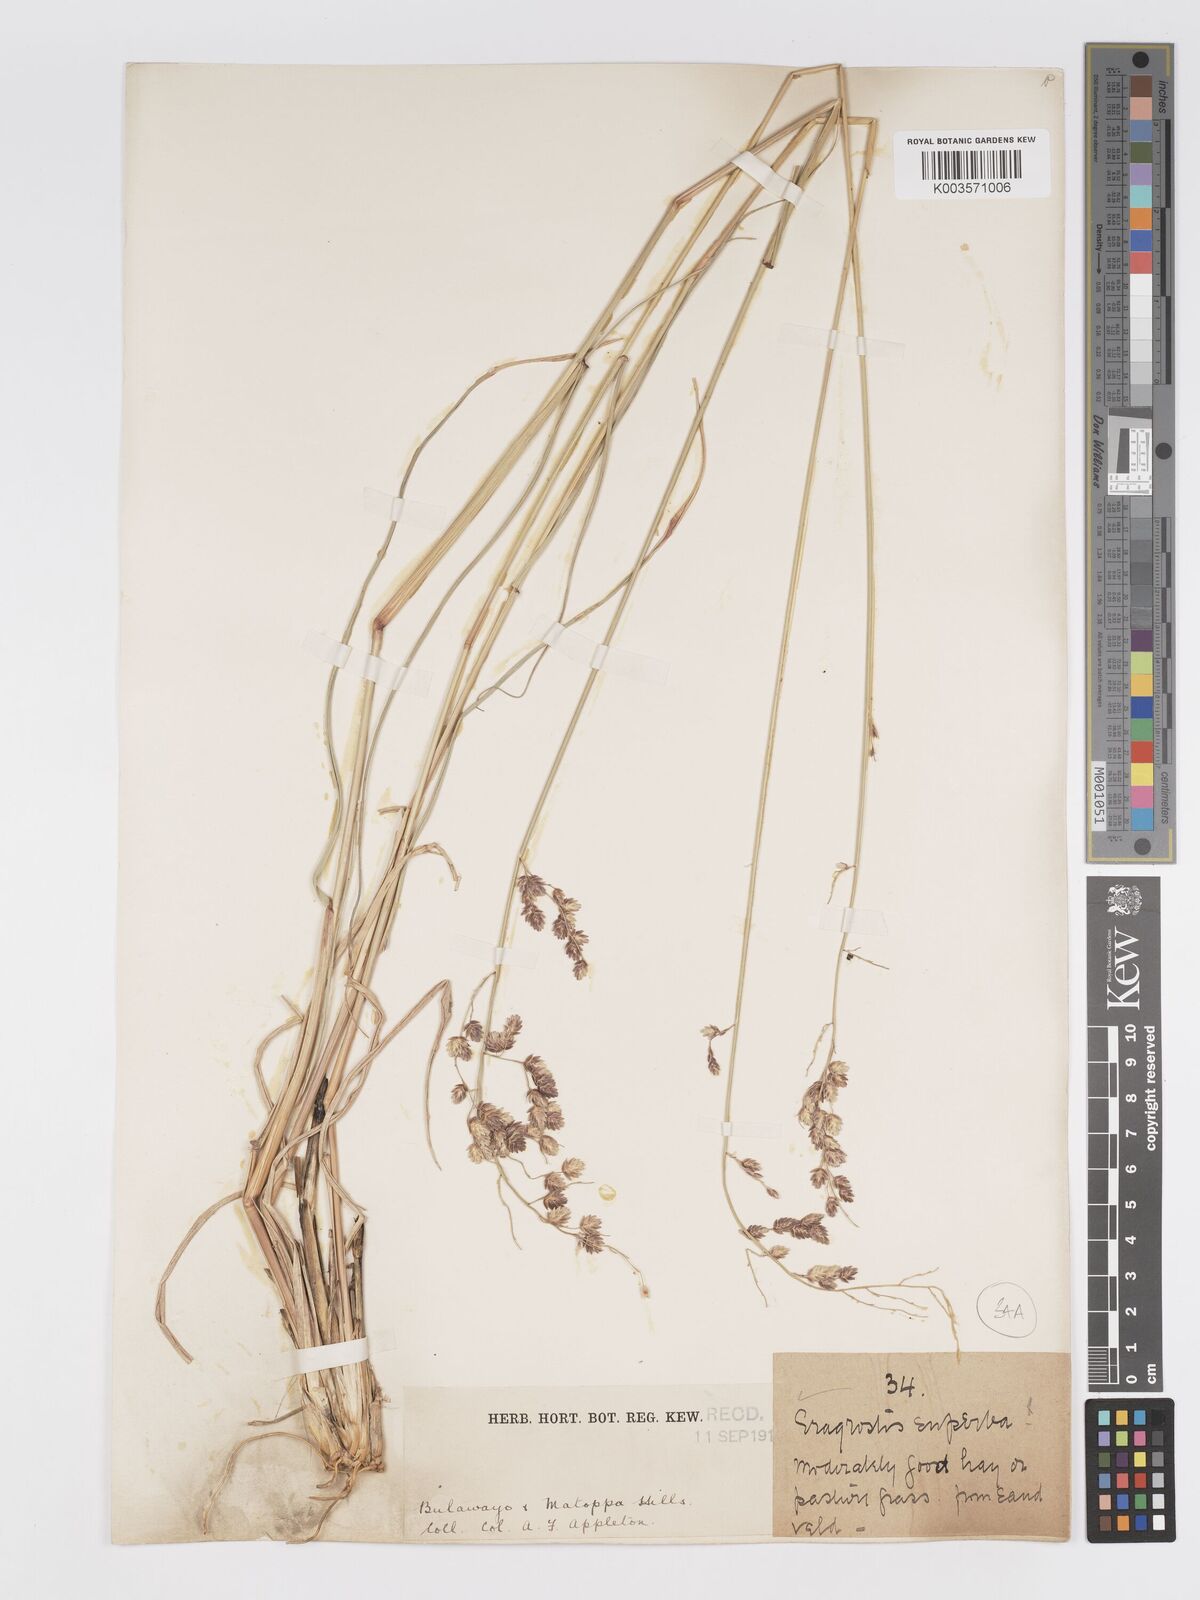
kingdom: Plantae
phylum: Tracheophyta
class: Liliopsida
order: Poales
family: Poaceae
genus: Eragrostis
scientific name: Eragrostis superba
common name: Wilman lovegrass
